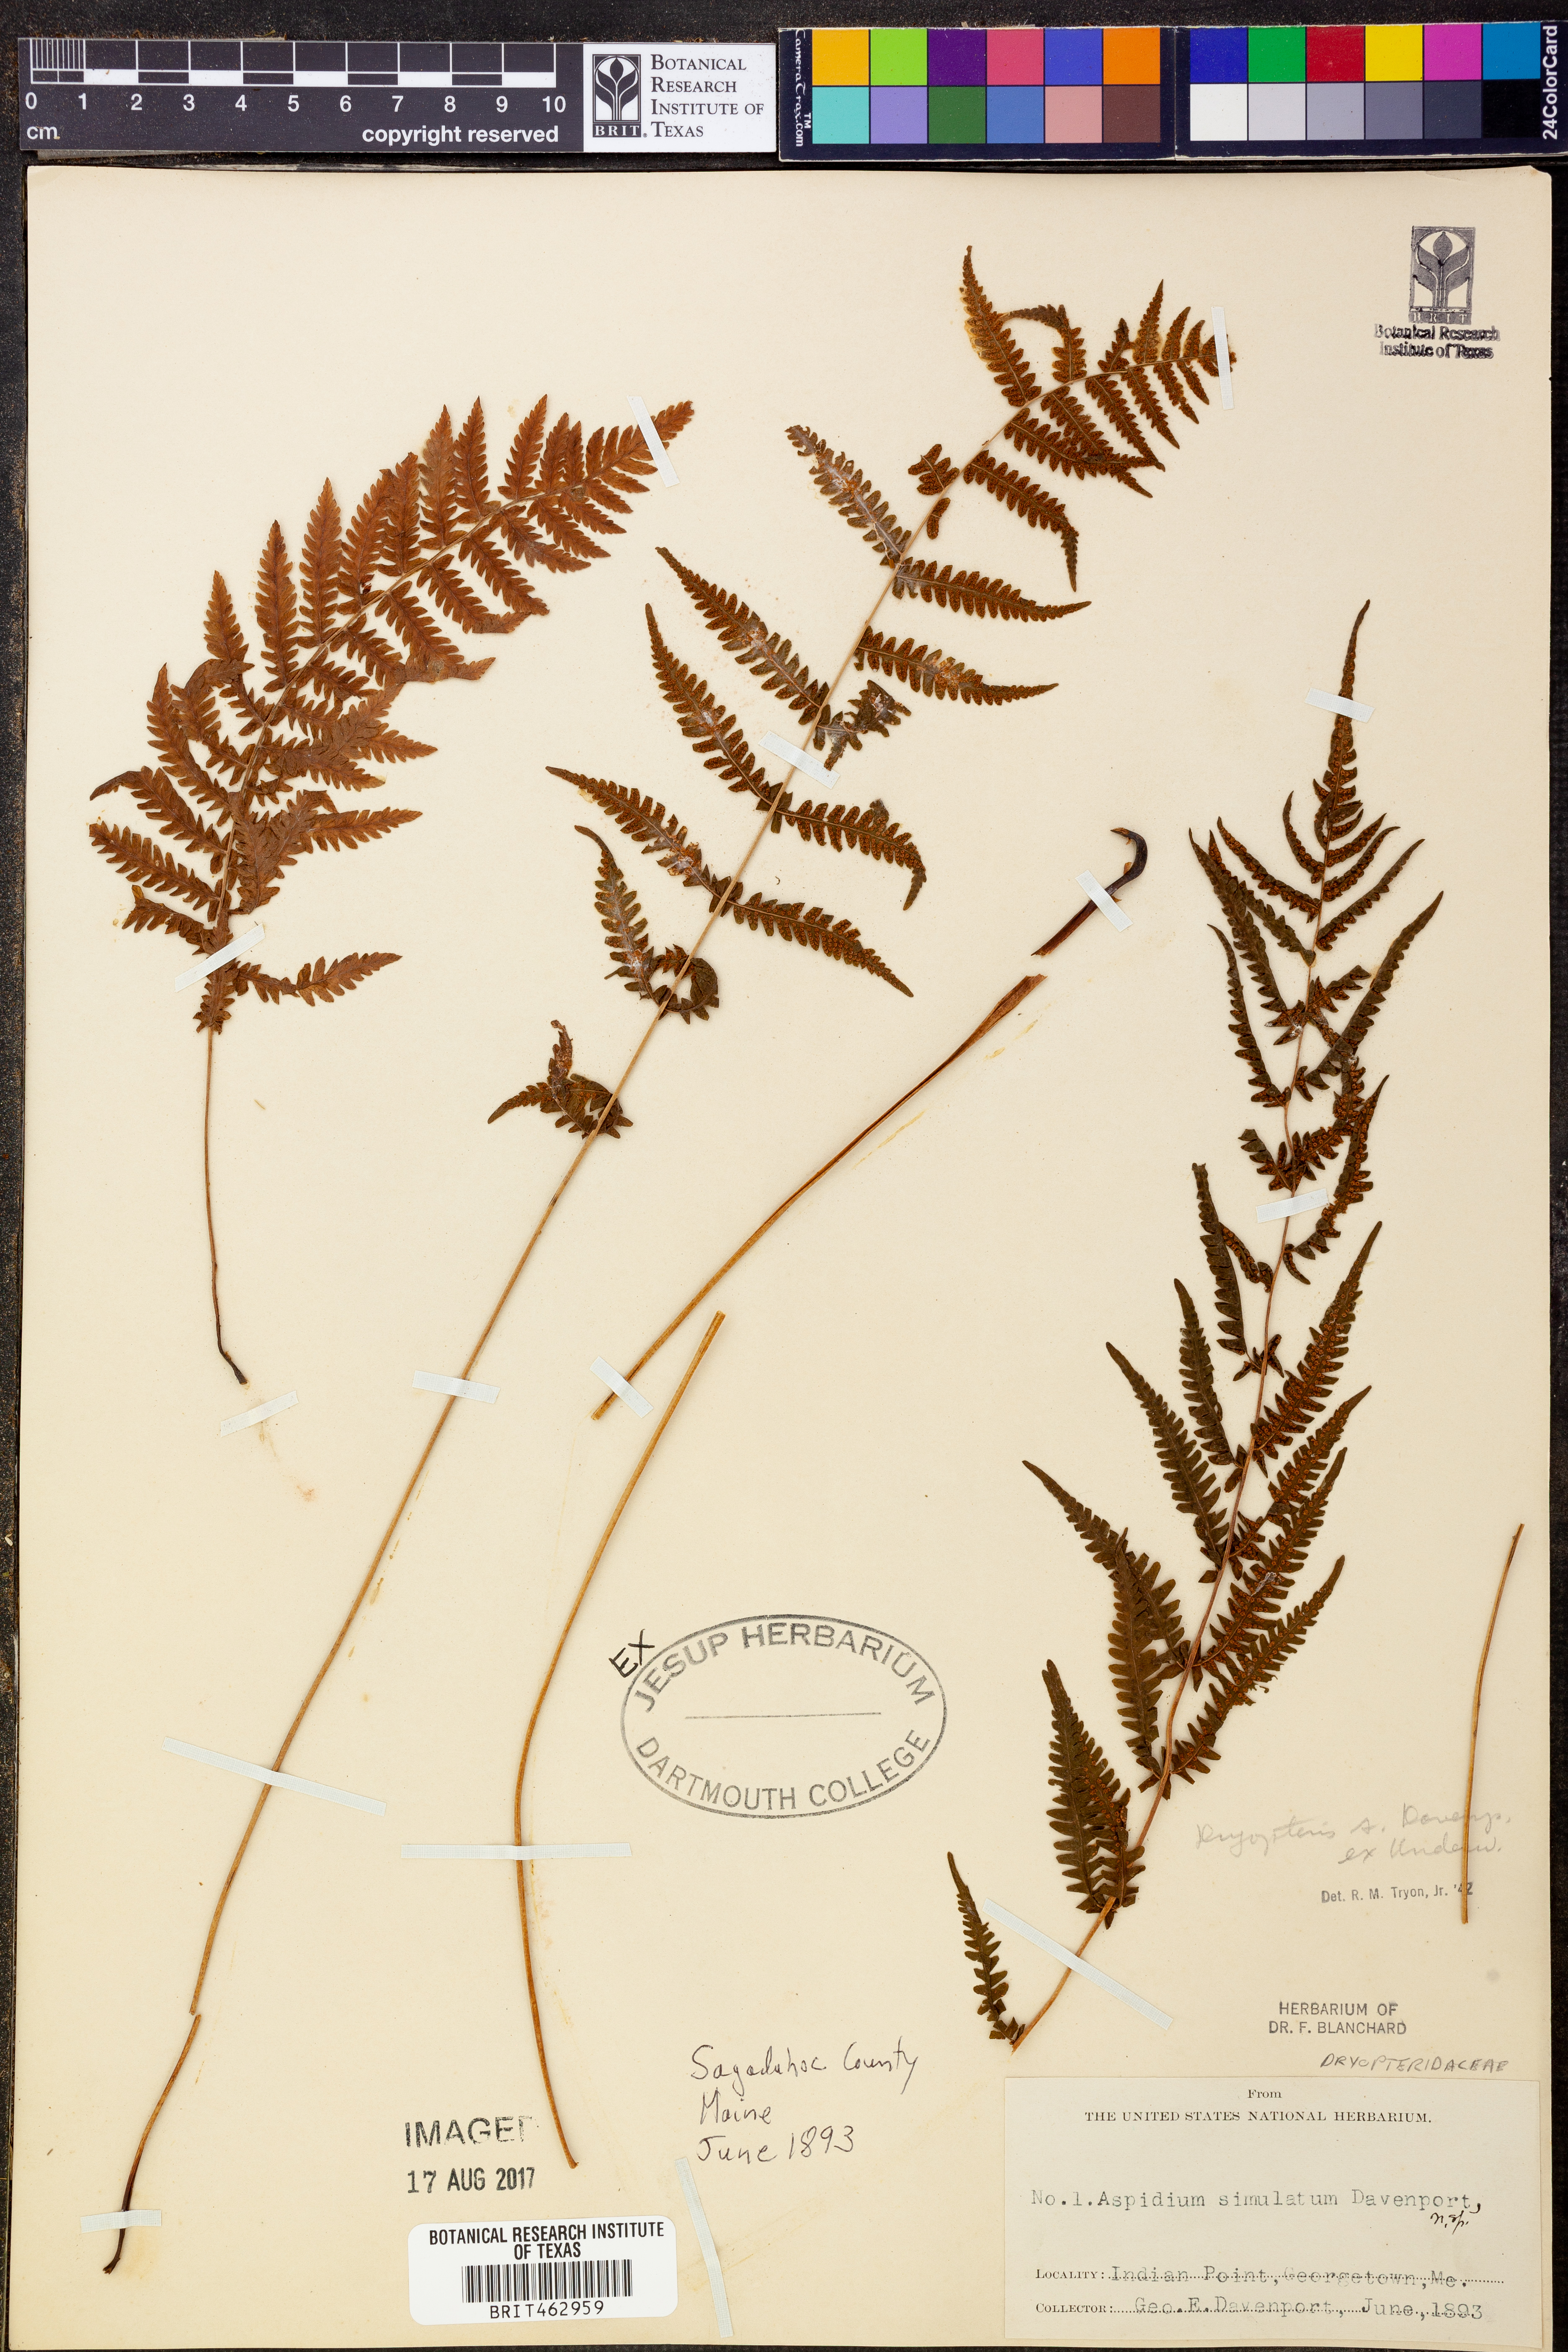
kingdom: Plantae
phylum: Tracheophyta
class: Polypodiopsida
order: Polypodiales
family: Thelypteridaceae
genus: Coryphopteris
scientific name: Coryphopteris simulata
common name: Bog fern
